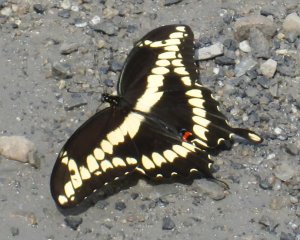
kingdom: Animalia
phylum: Arthropoda
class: Insecta
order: Lepidoptera
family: Papilionidae
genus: Papilio
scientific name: Papilio cresphontes
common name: Eastern Giant Swallowtail
